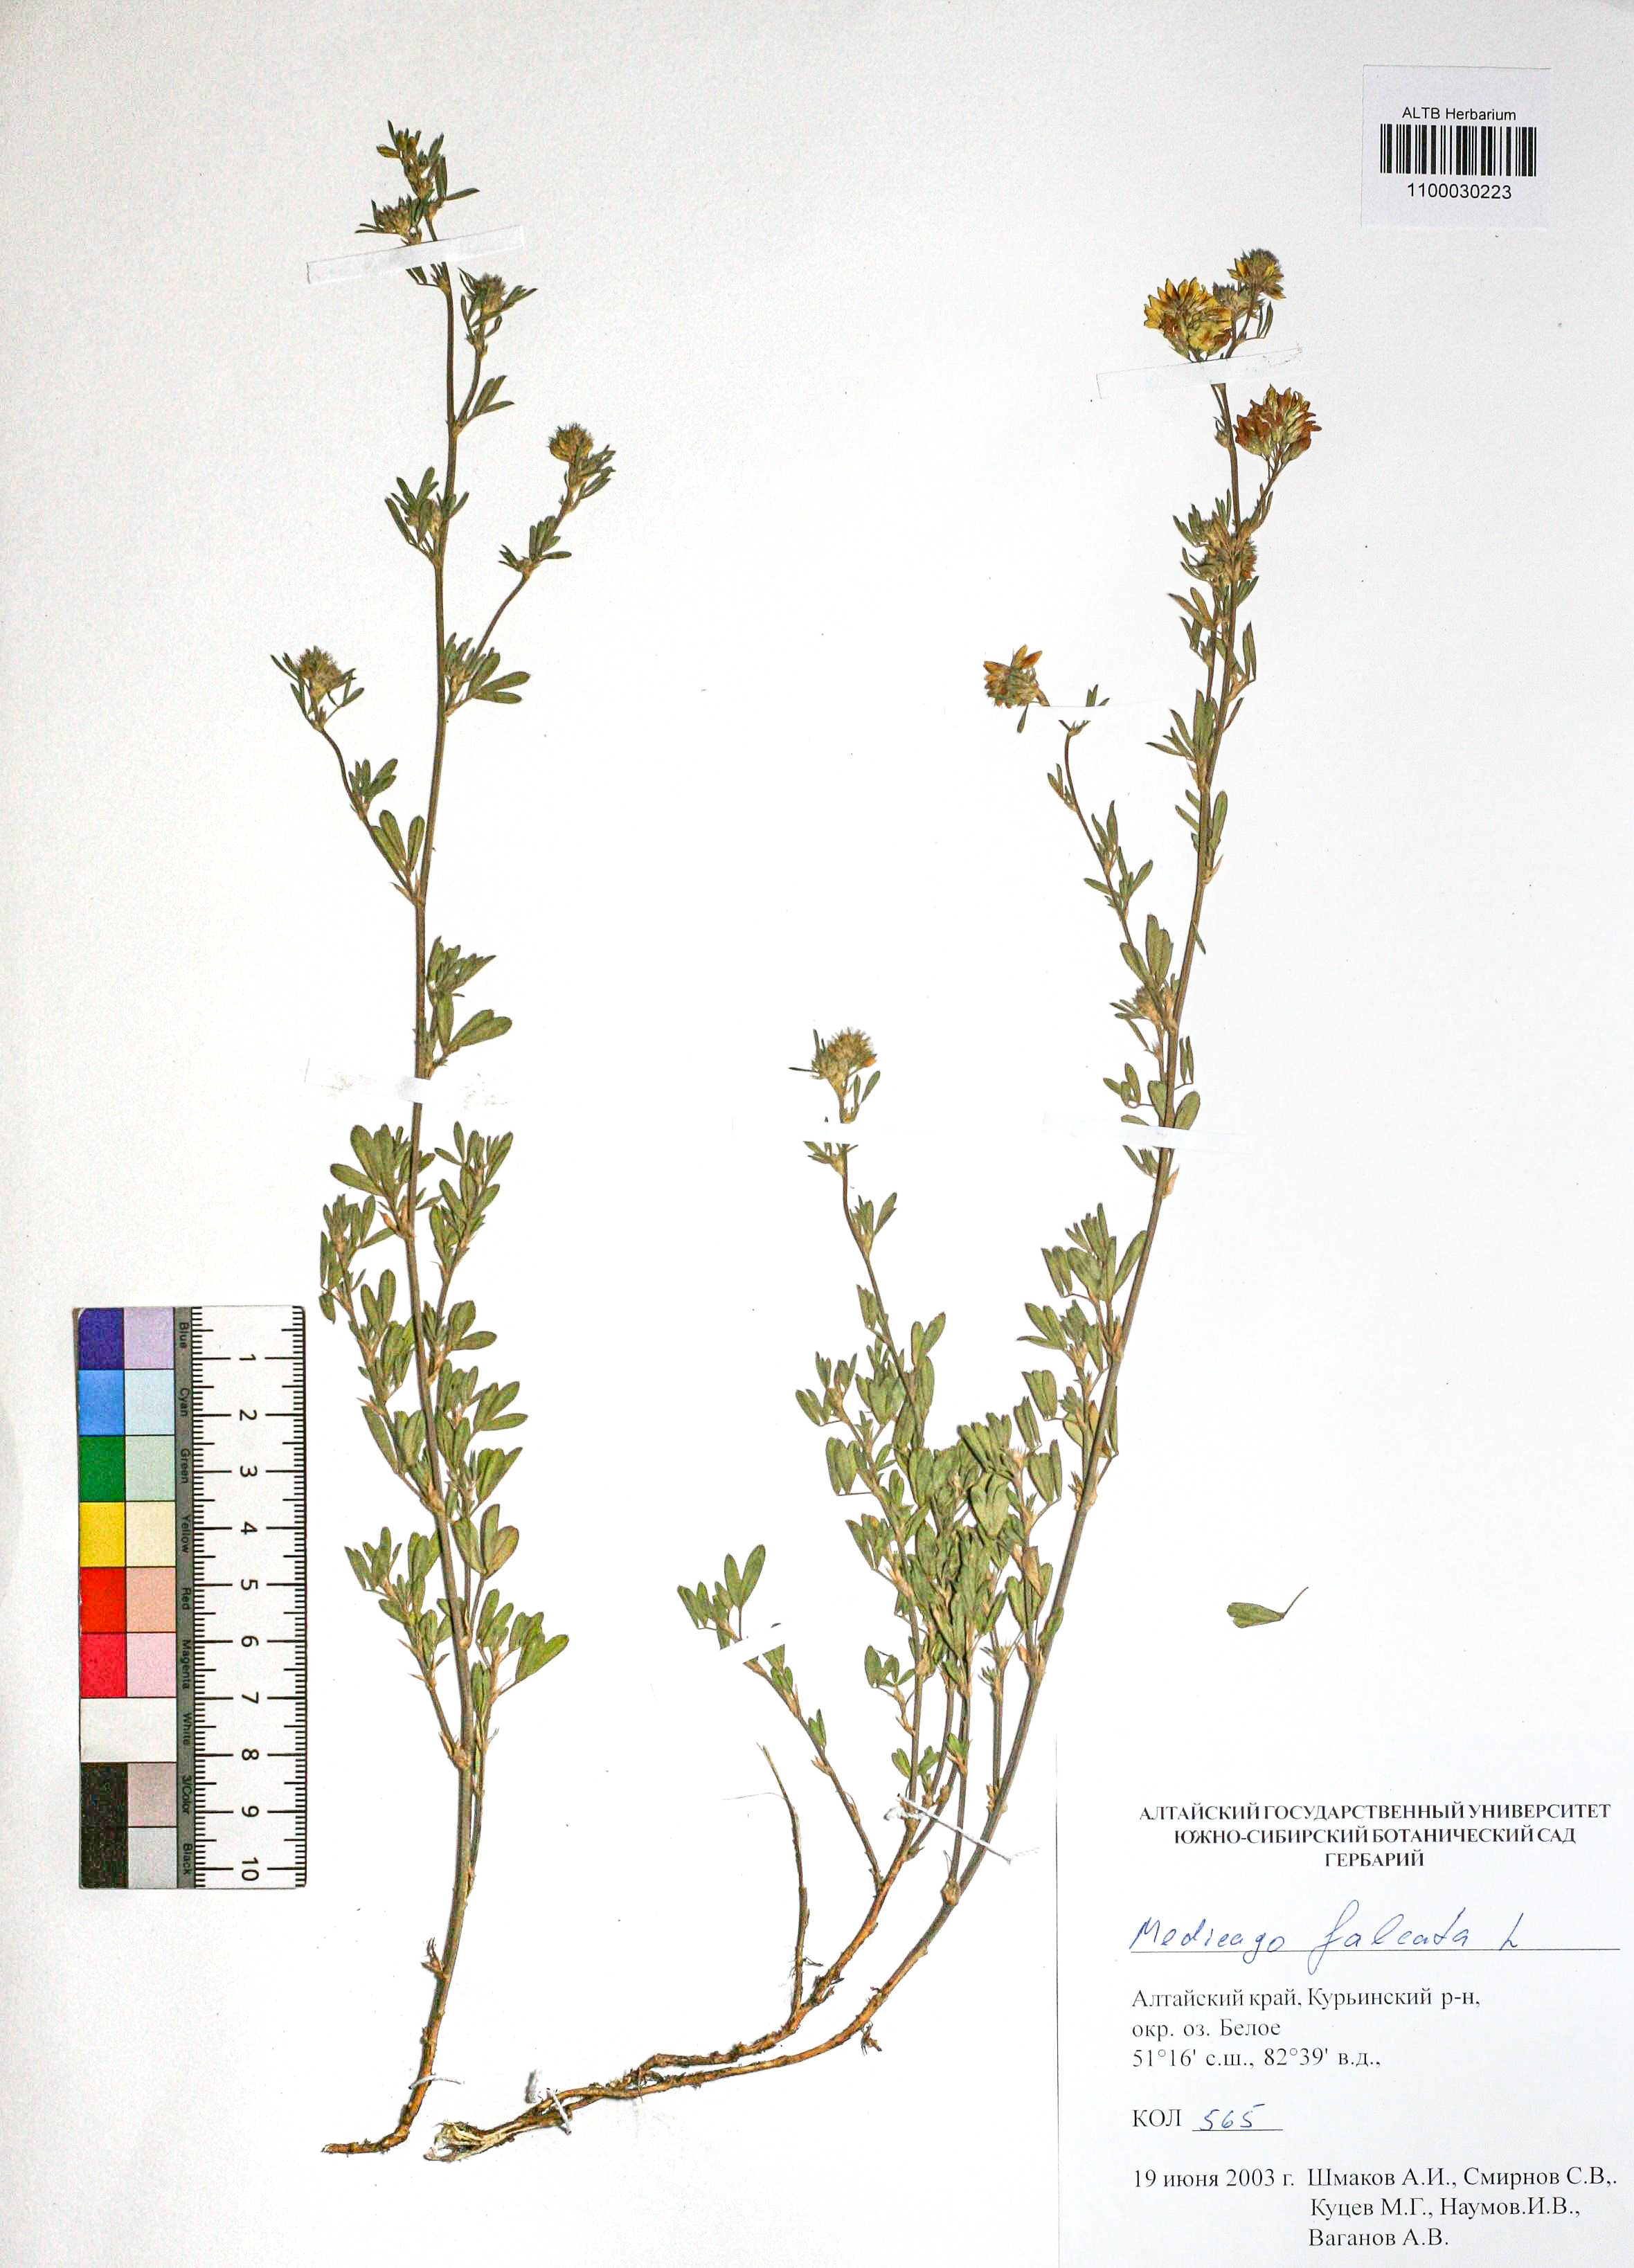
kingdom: Plantae
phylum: Tracheophyta
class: Magnoliopsida
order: Fabales
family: Fabaceae
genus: Medicago
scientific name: Medicago falcata
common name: Sickle medick
